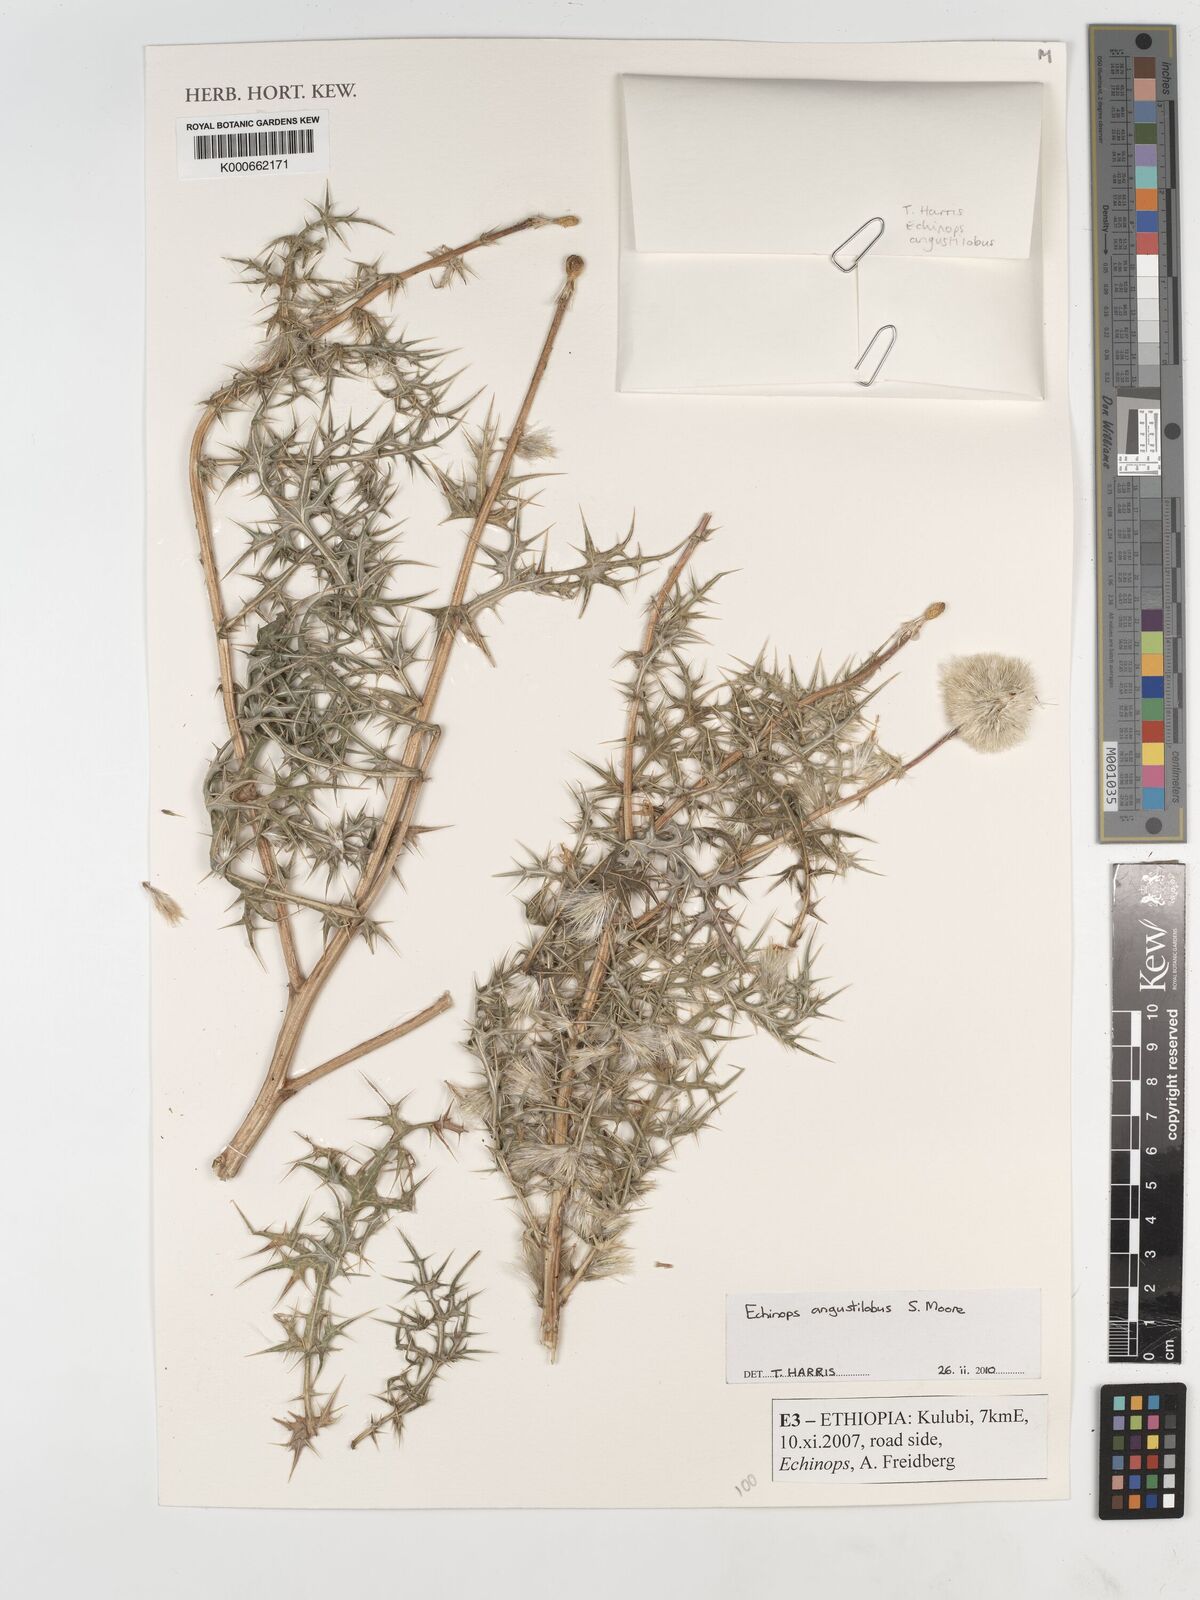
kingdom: Plantae
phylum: Tracheophyta
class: Magnoliopsida
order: Asterales
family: Asteraceae
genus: Echinops
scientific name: Echinops angustilobus
